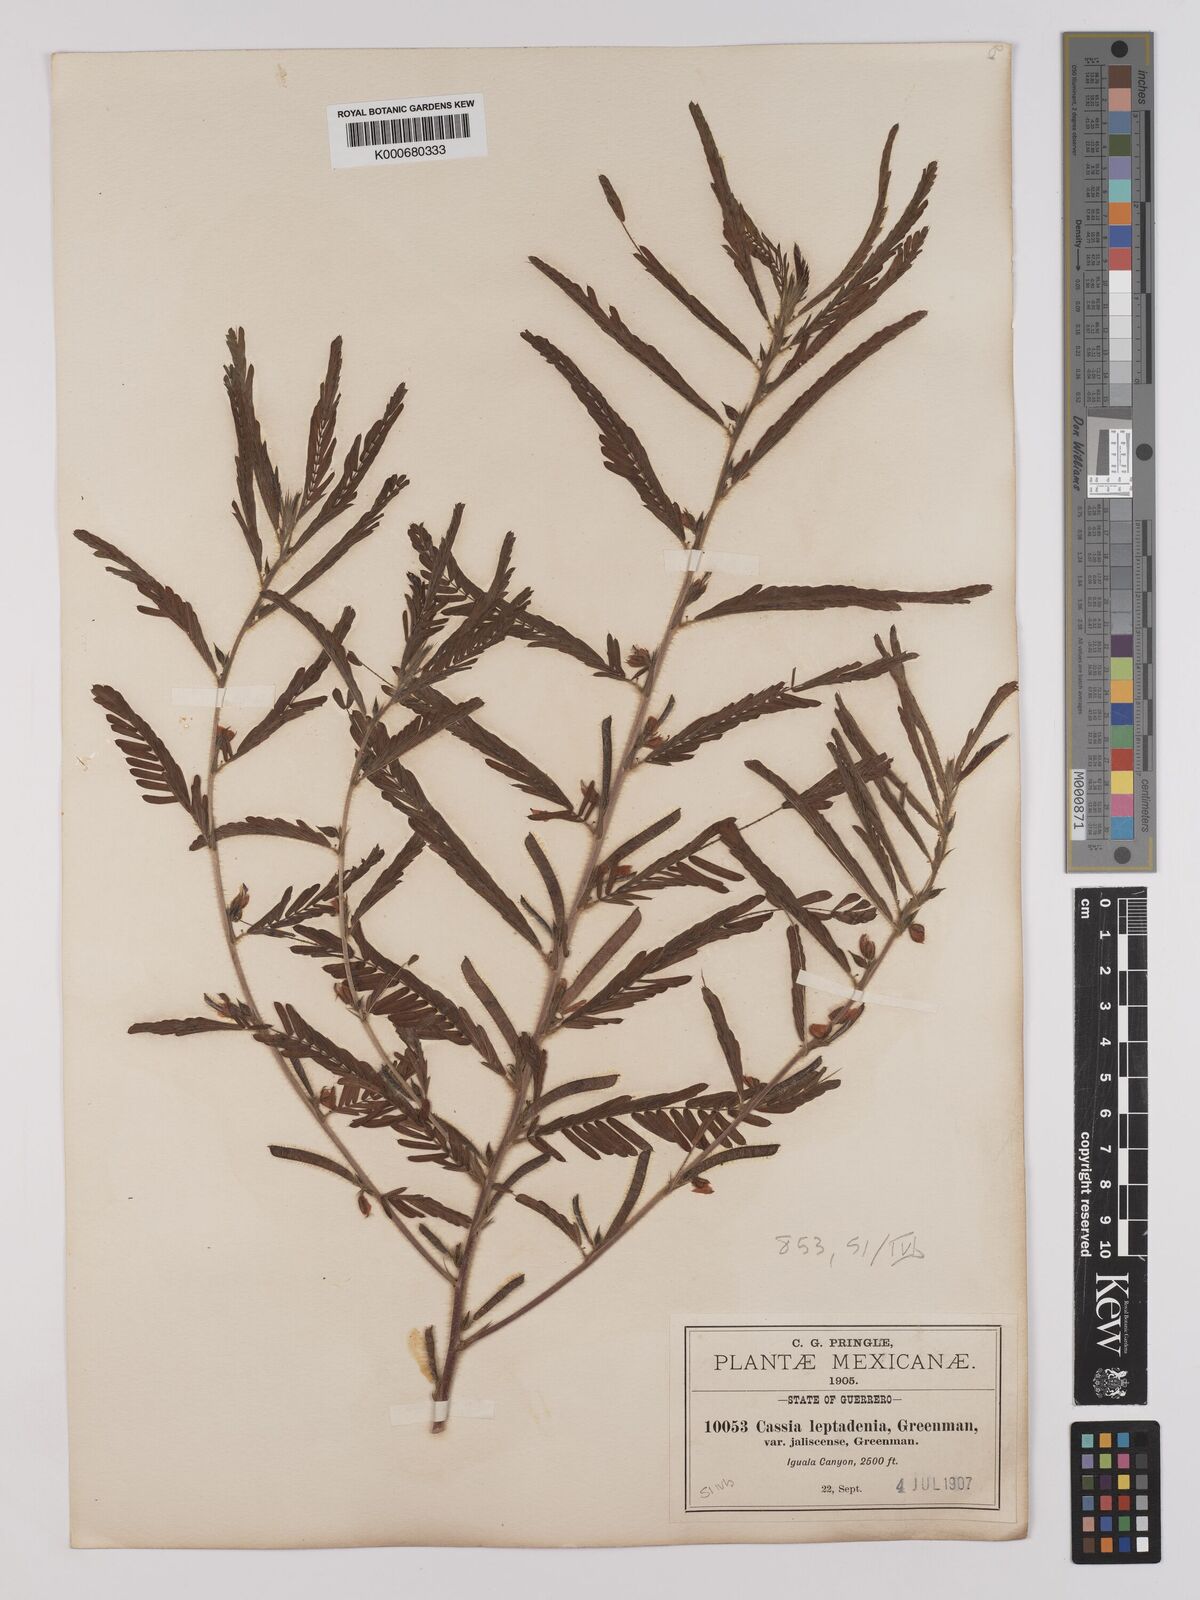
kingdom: Plantae
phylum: Tracheophyta
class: Magnoliopsida
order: Fabales
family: Fabaceae
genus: Chamaecrista
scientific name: Chamaecrista nictitans
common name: Sensitive cassia
